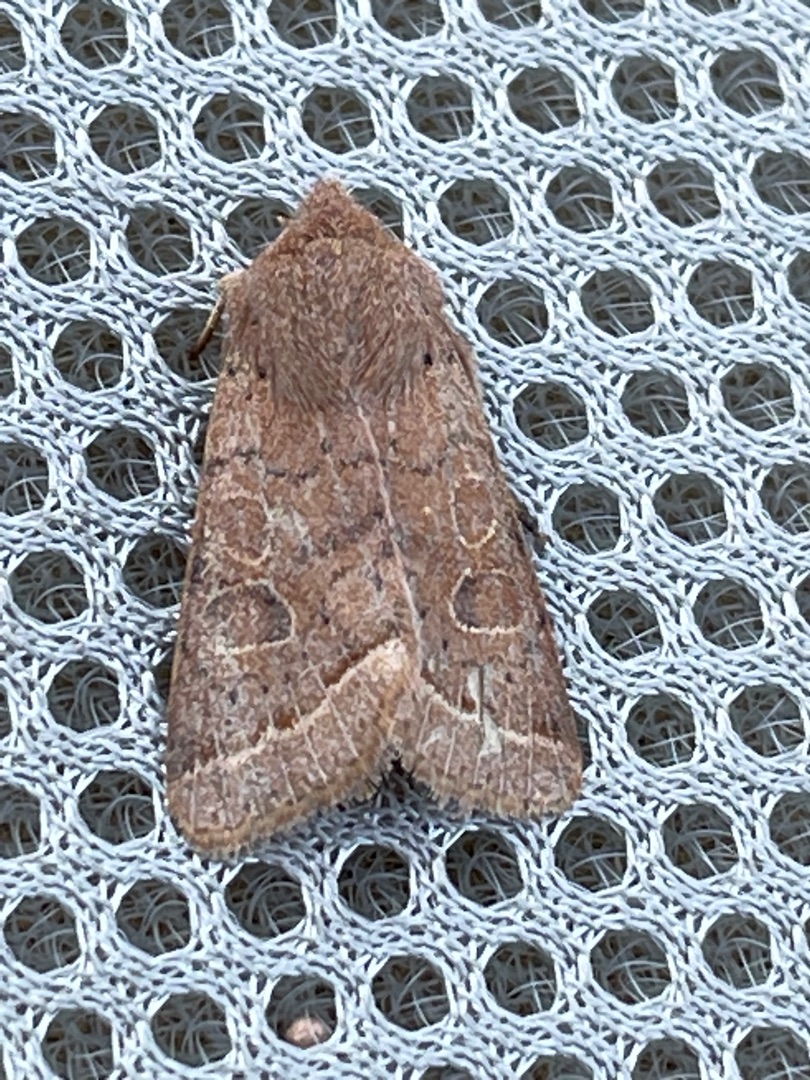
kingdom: Animalia
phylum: Arthropoda
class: Insecta
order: Lepidoptera
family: Noctuidae
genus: Orthosia
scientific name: Orthosia cerasi
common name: Rødgul forårsugle
